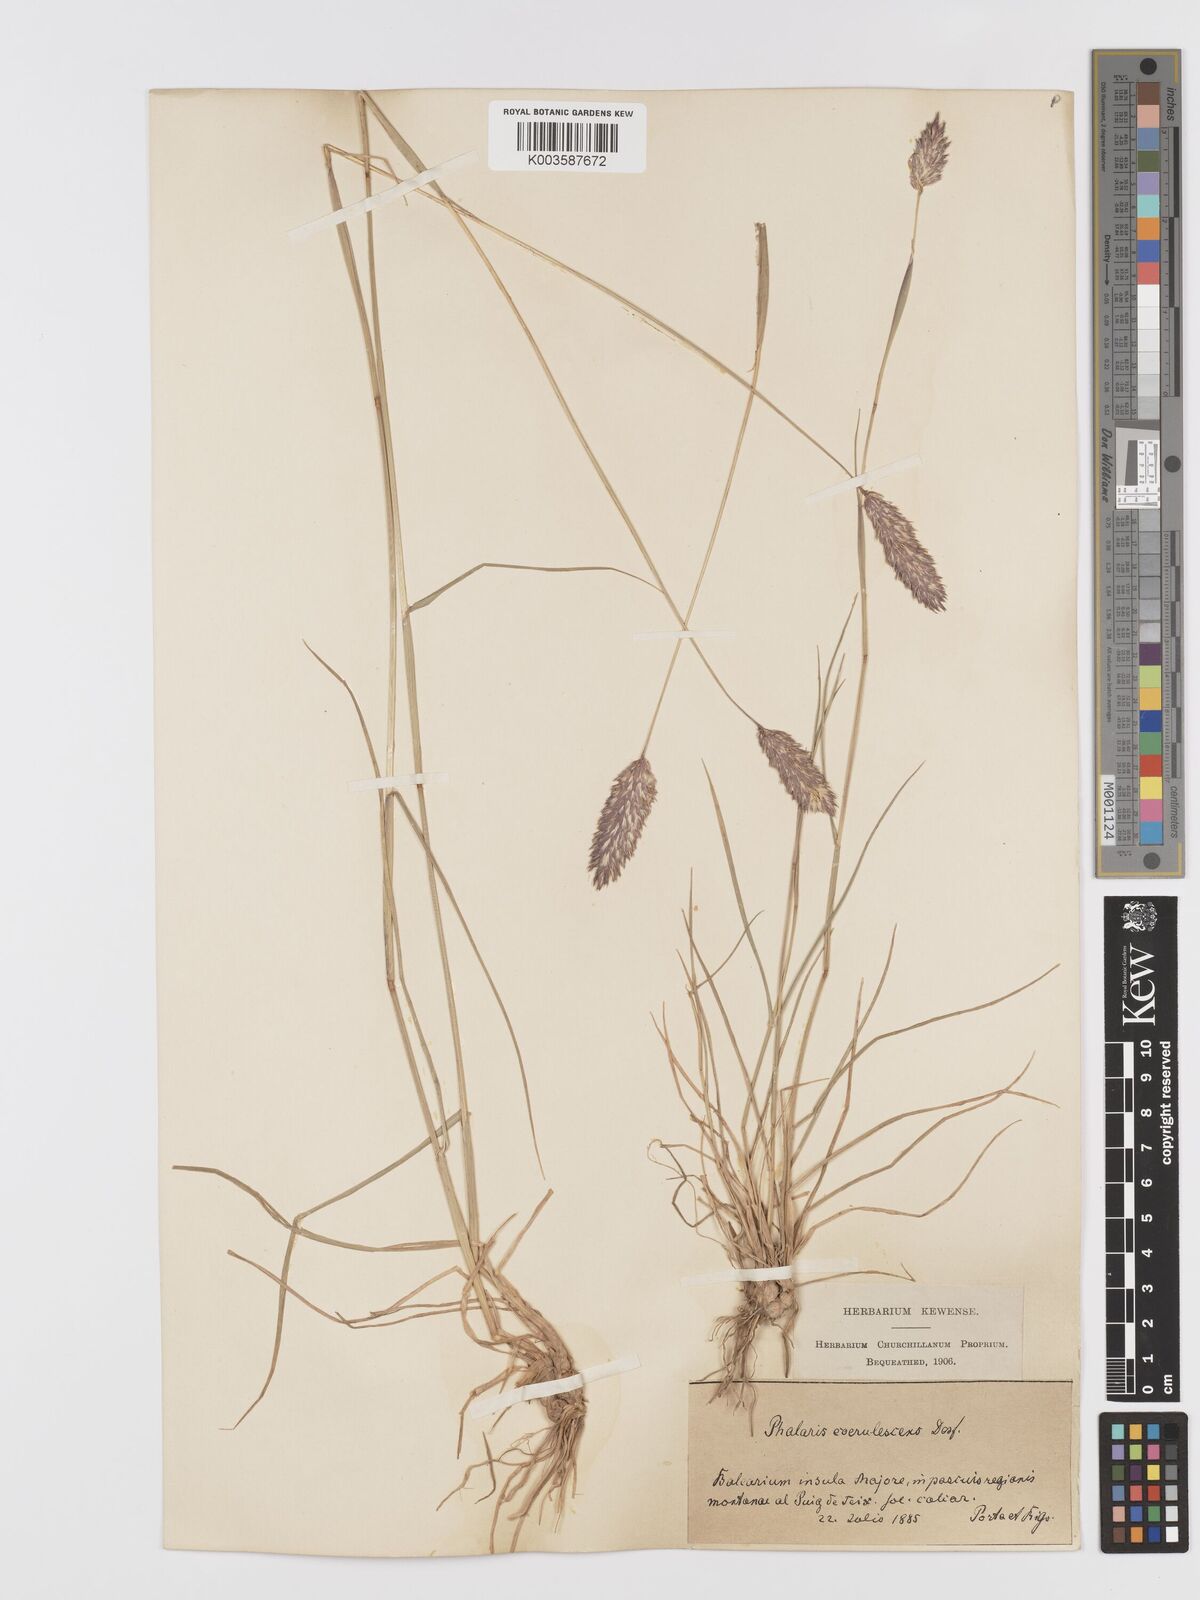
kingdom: Plantae
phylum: Tracheophyta
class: Liliopsida
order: Poales
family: Poaceae
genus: Phalaris
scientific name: Phalaris coerulescens
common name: Sunolgrass
